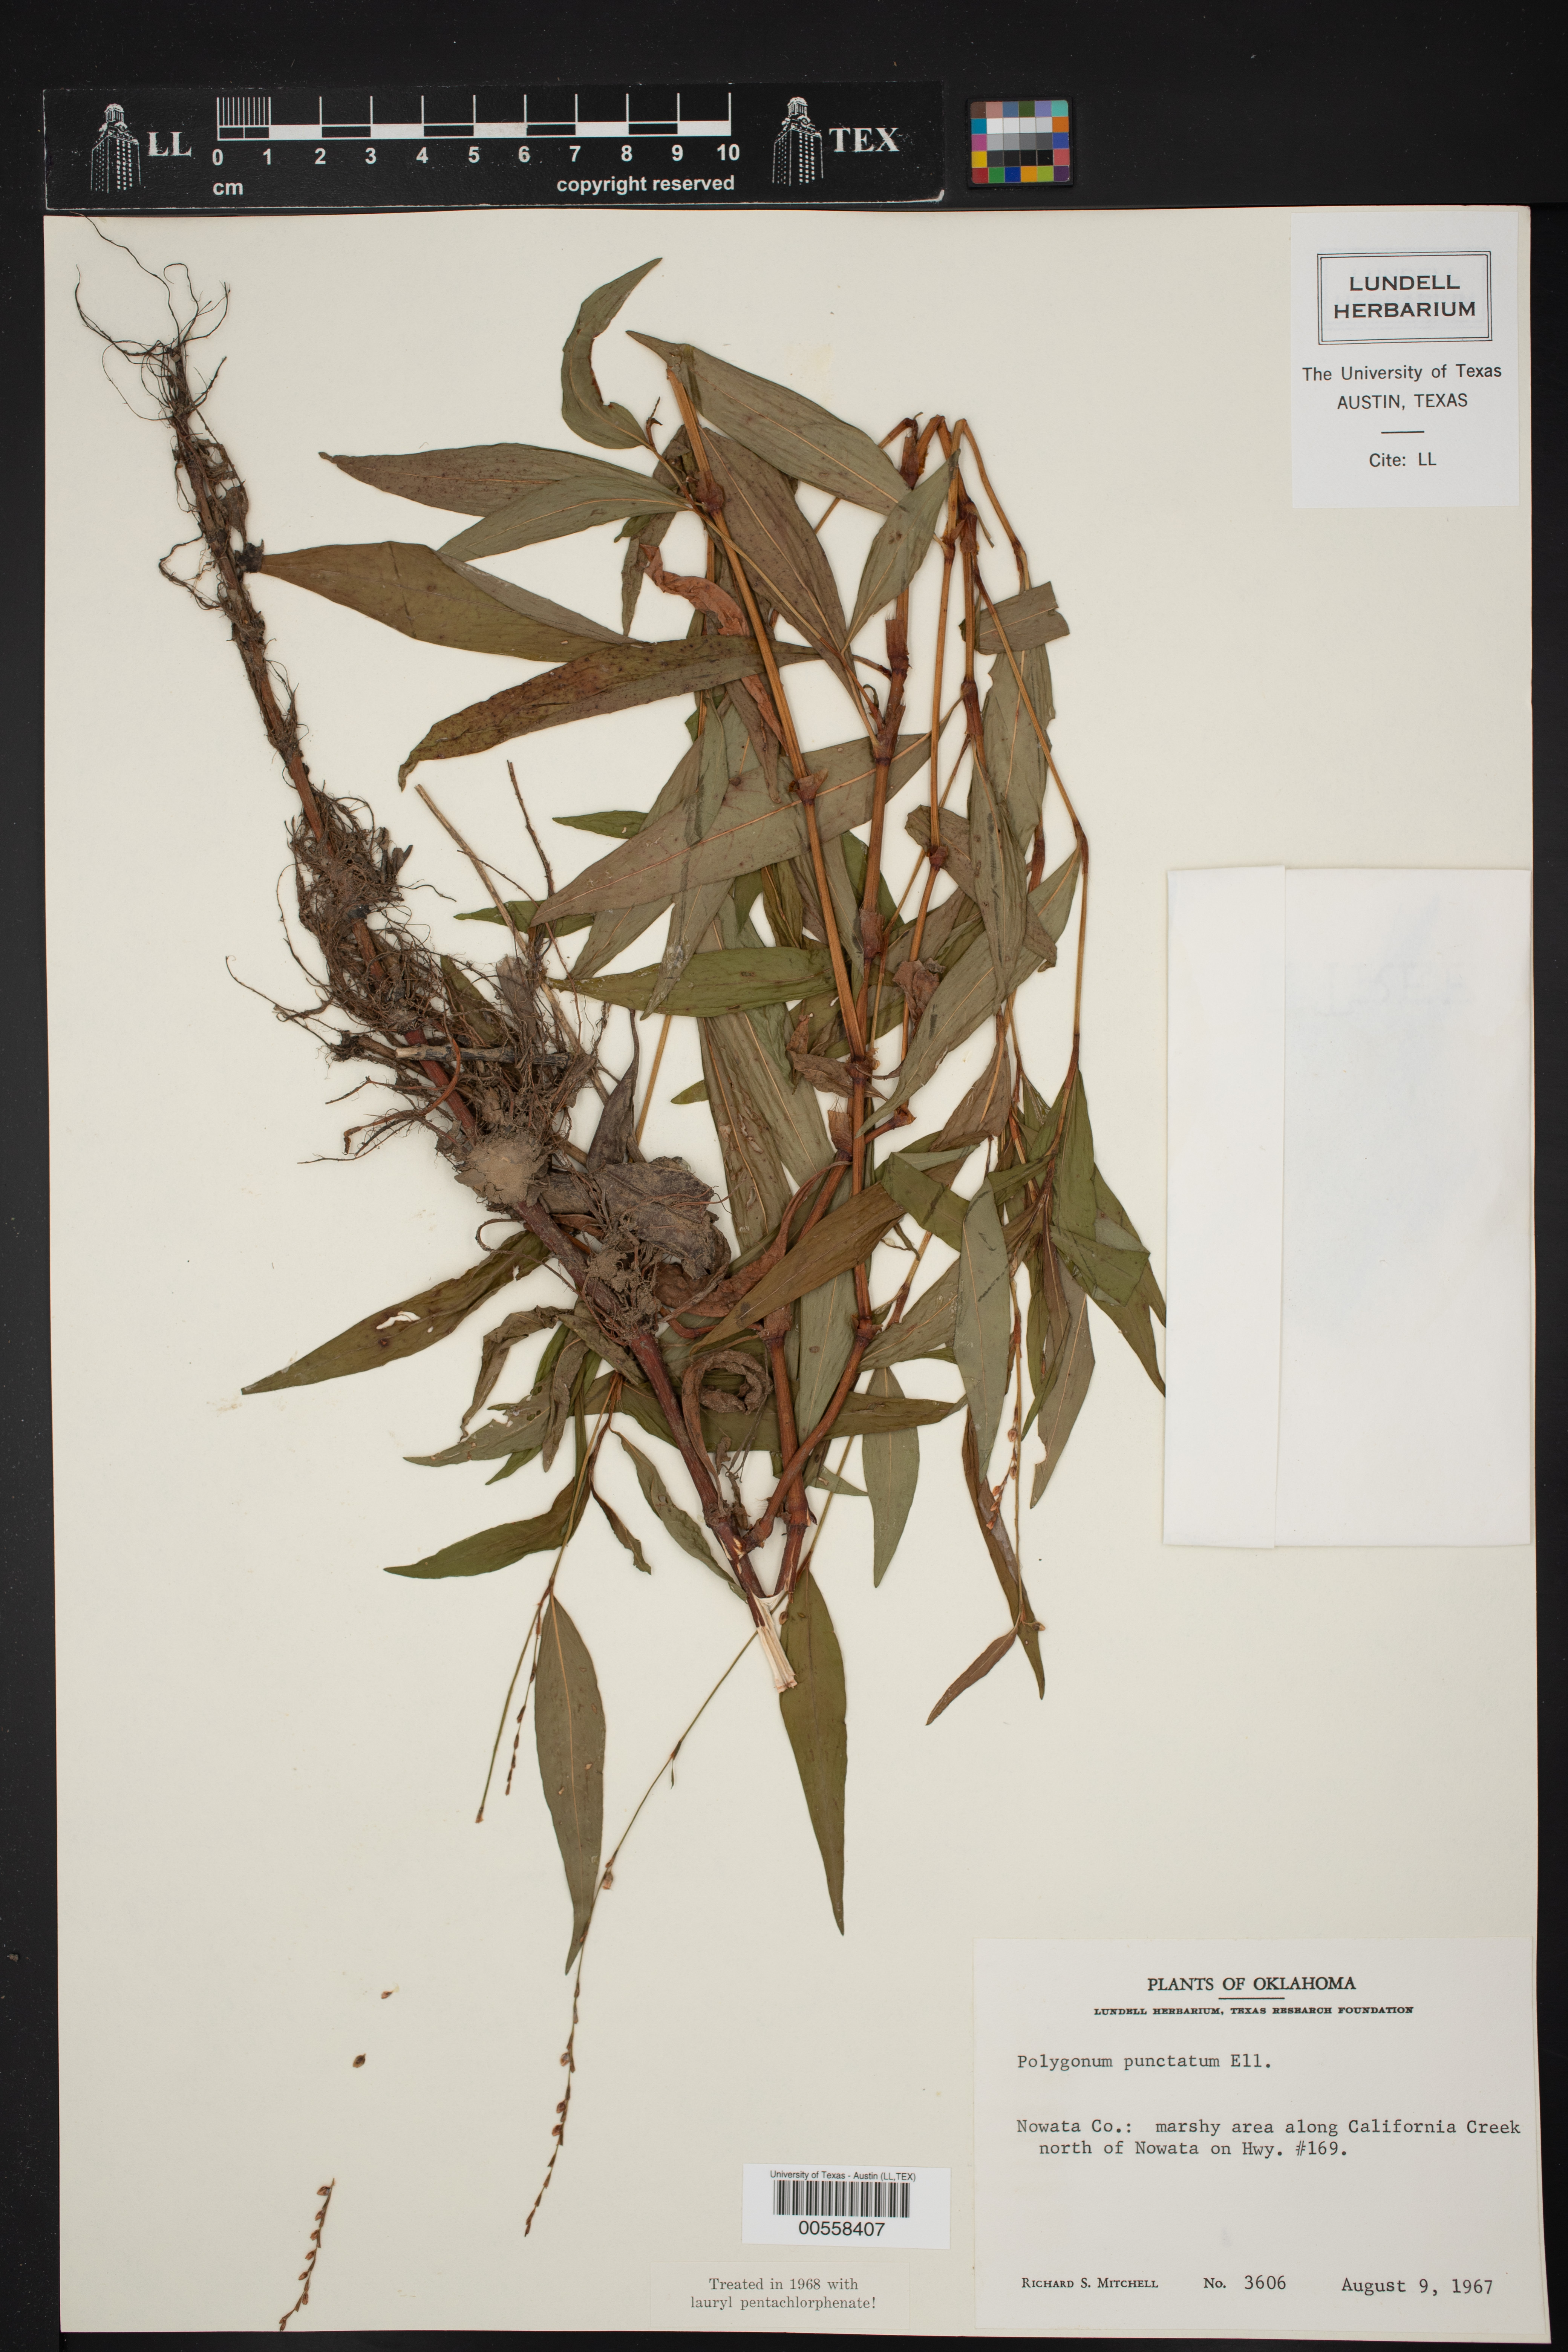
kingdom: Plantae
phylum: Tracheophyta
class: Magnoliopsida
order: Caryophyllales
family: Polygonaceae
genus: Polygonum
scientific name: Polygonum punctatum
